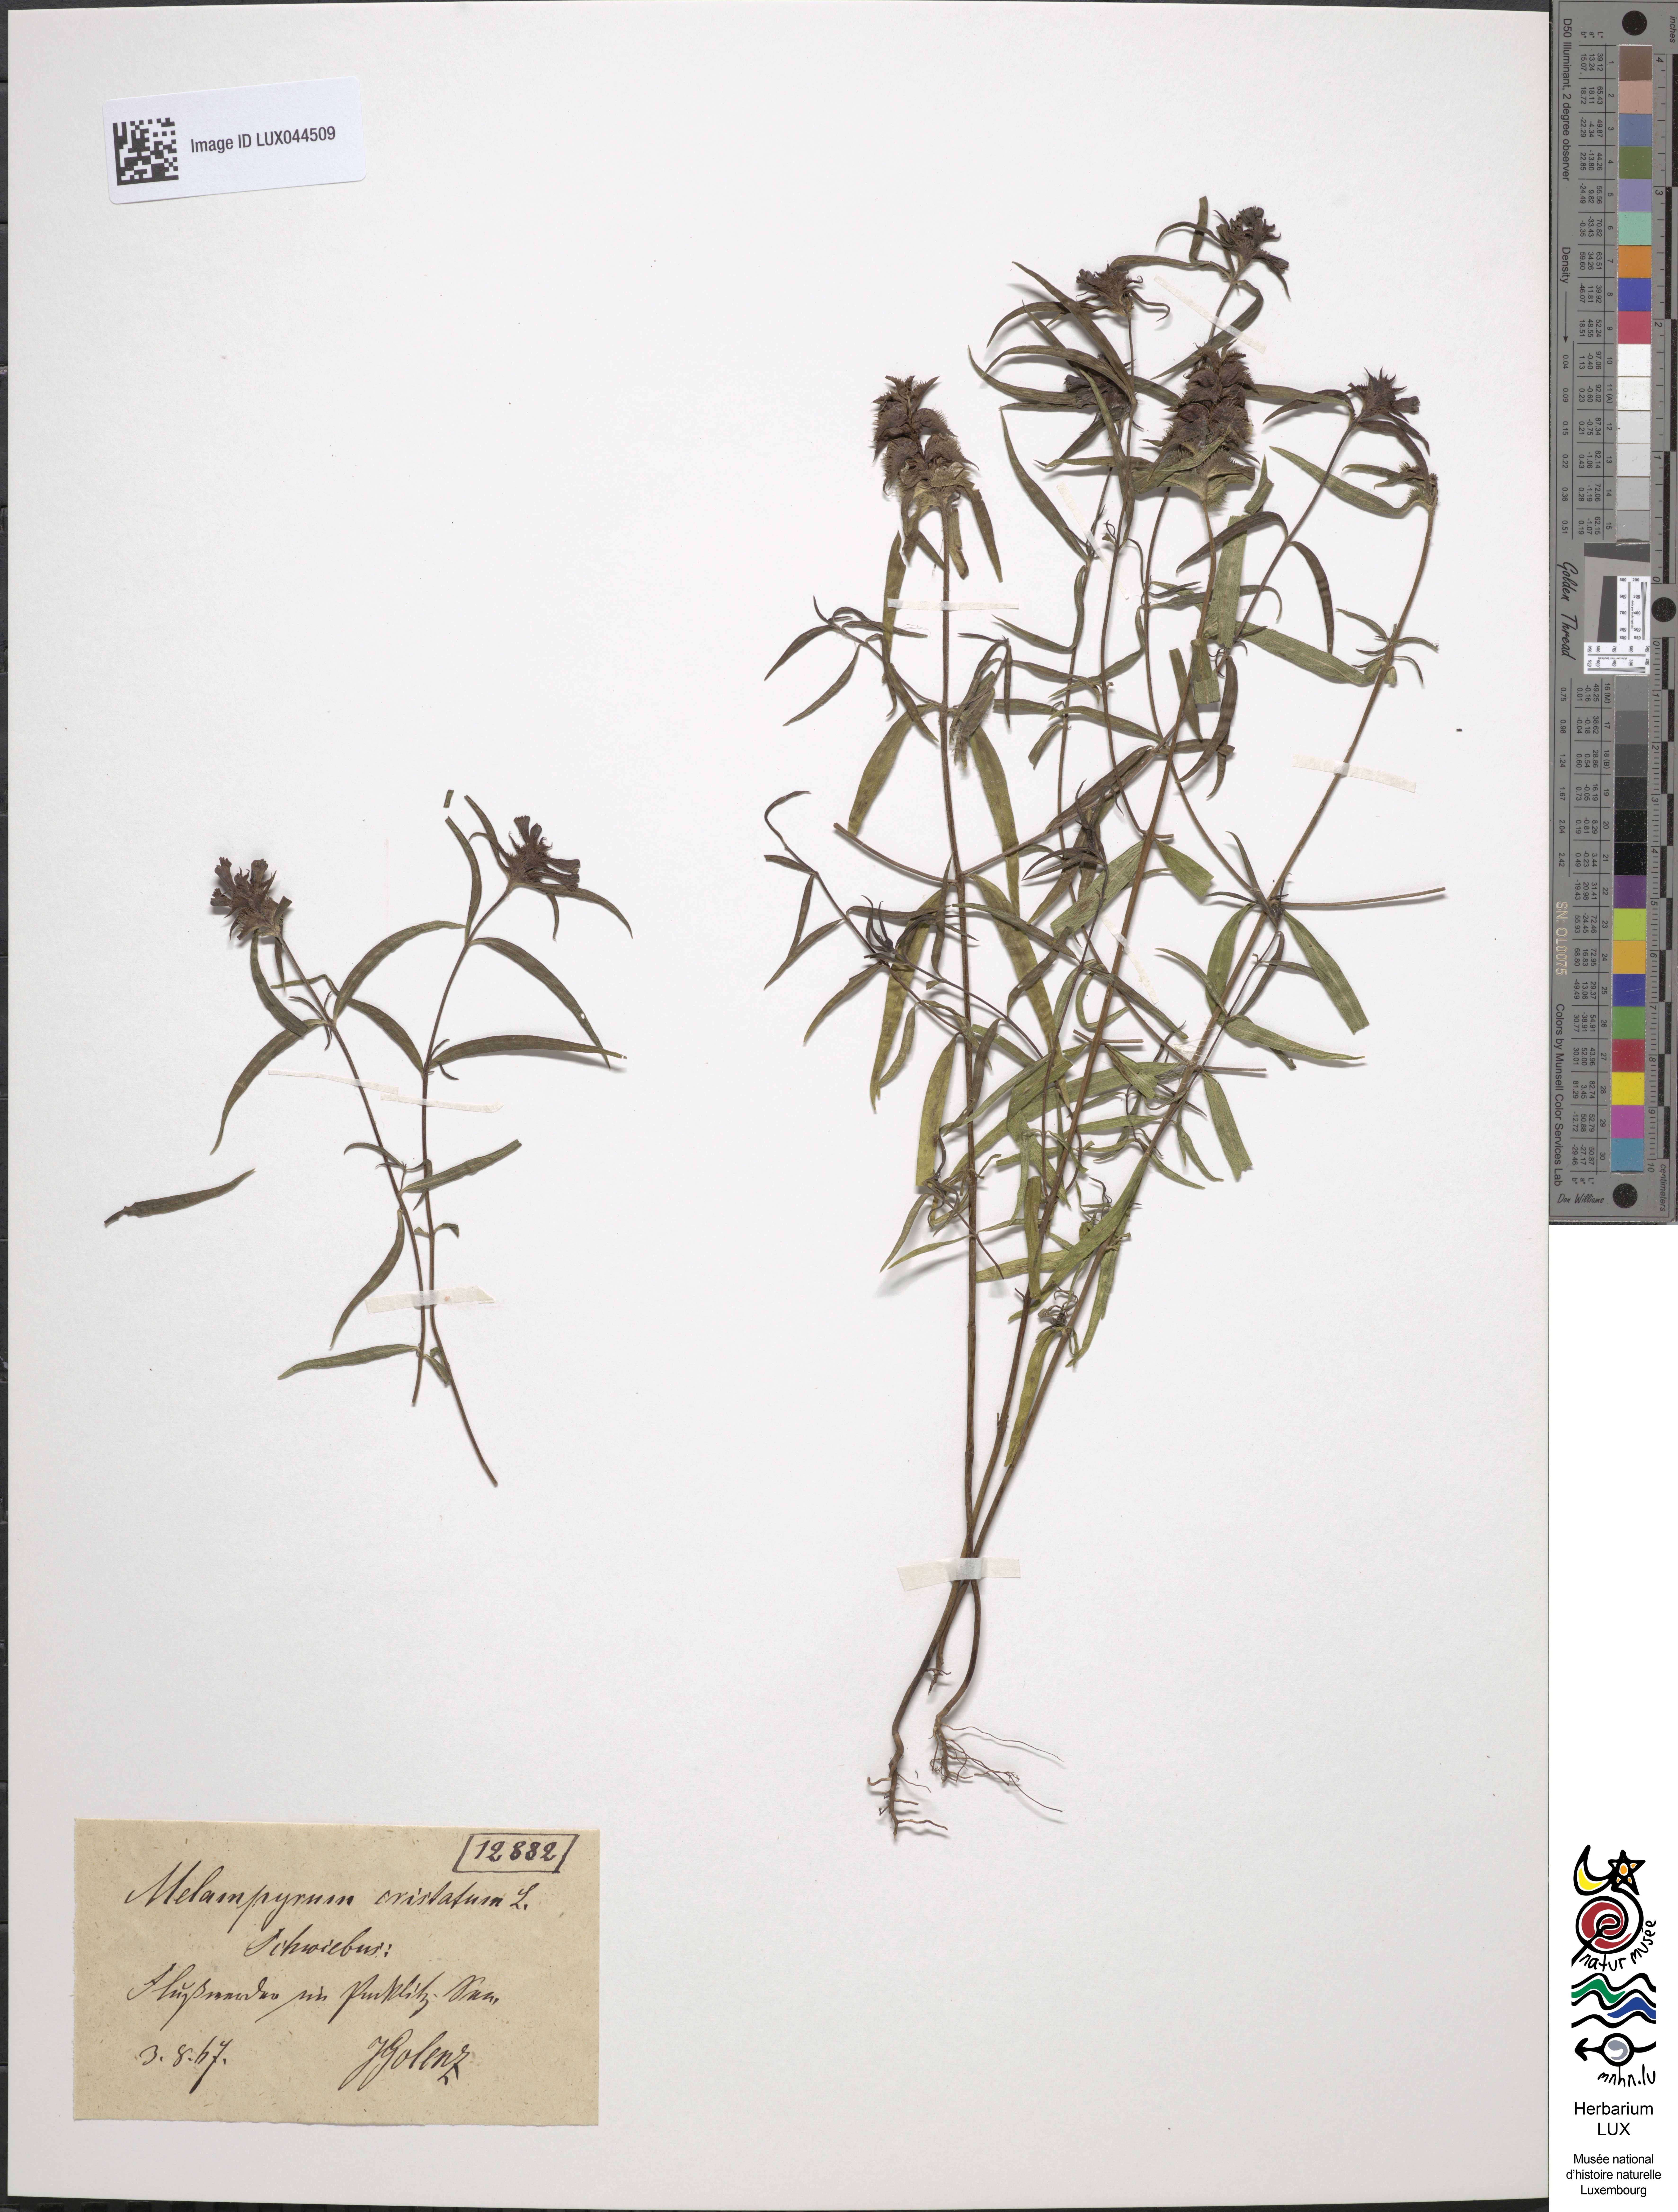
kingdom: Plantae
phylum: Tracheophyta
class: Magnoliopsida
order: Lamiales
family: Orobanchaceae
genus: Melampyrum
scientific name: Melampyrum cristatum
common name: Crested cow-wheat
